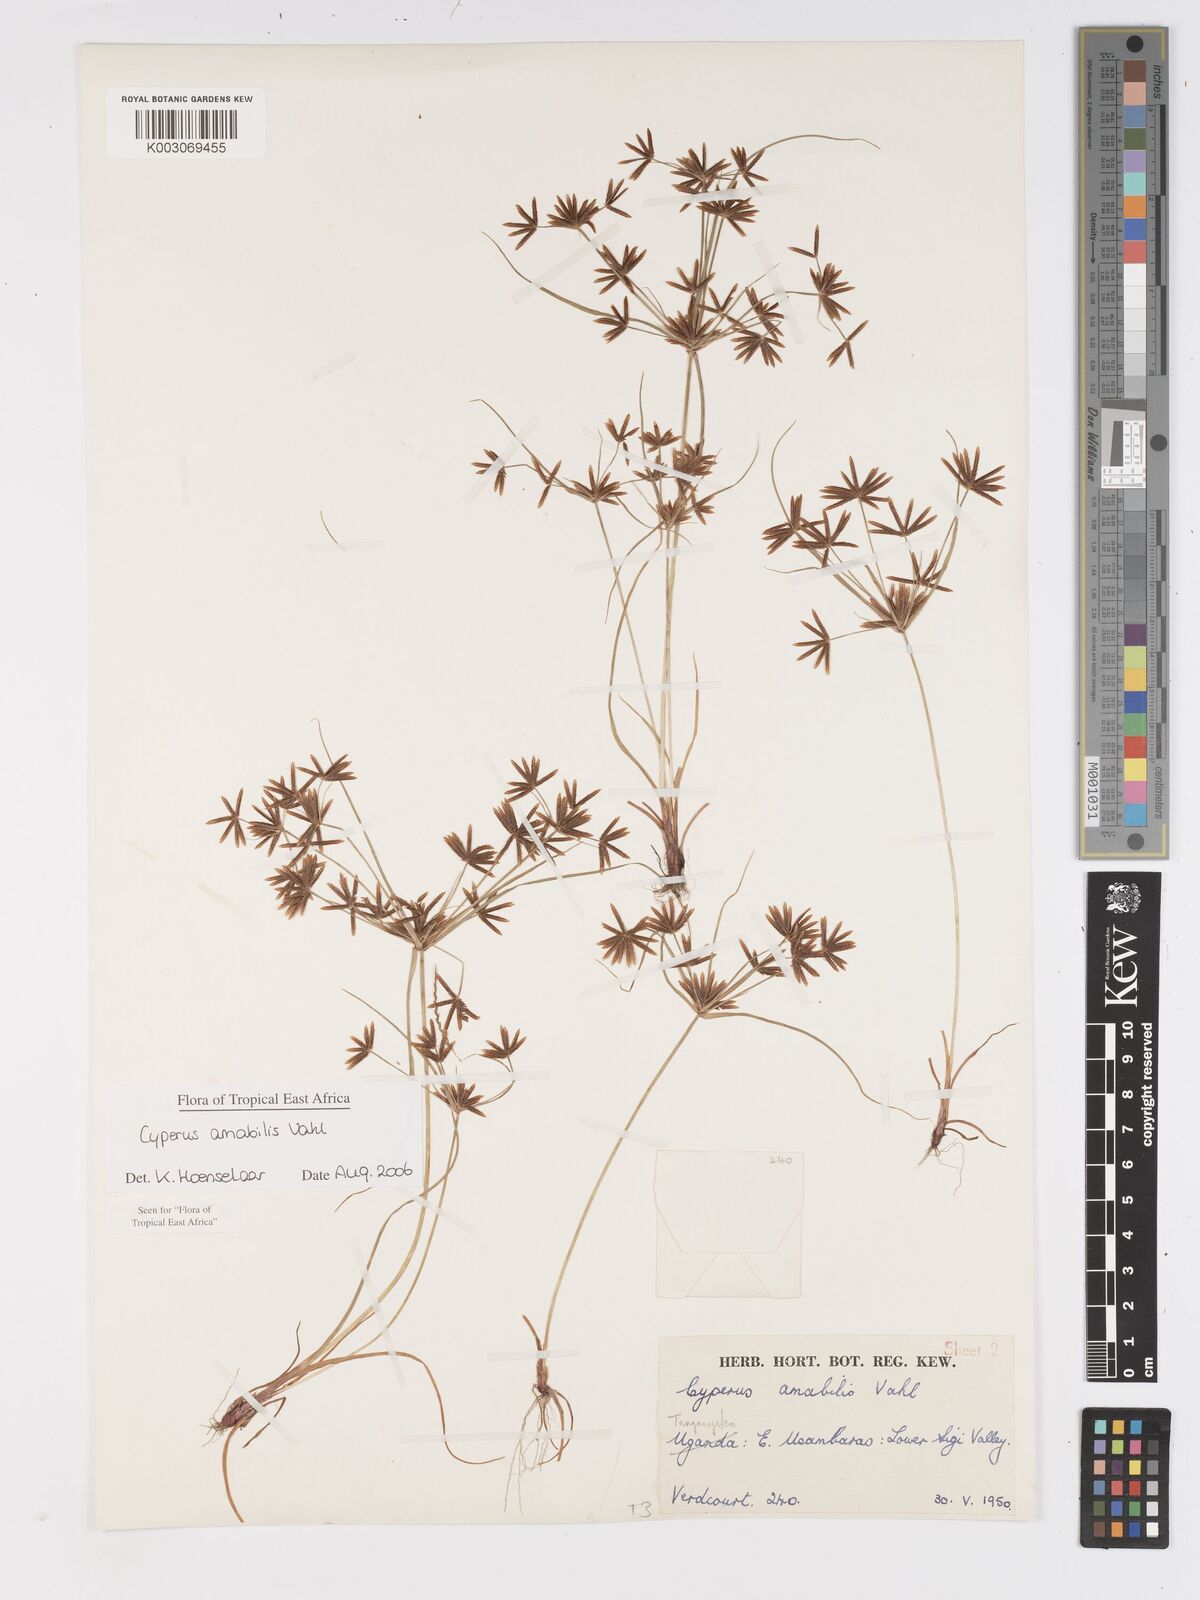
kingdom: Plantae
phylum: Tracheophyta
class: Liliopsida
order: Poales
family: Cyperaceae
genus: Cyperus
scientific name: Cyperus amabilis
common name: Foothill flat sedge
